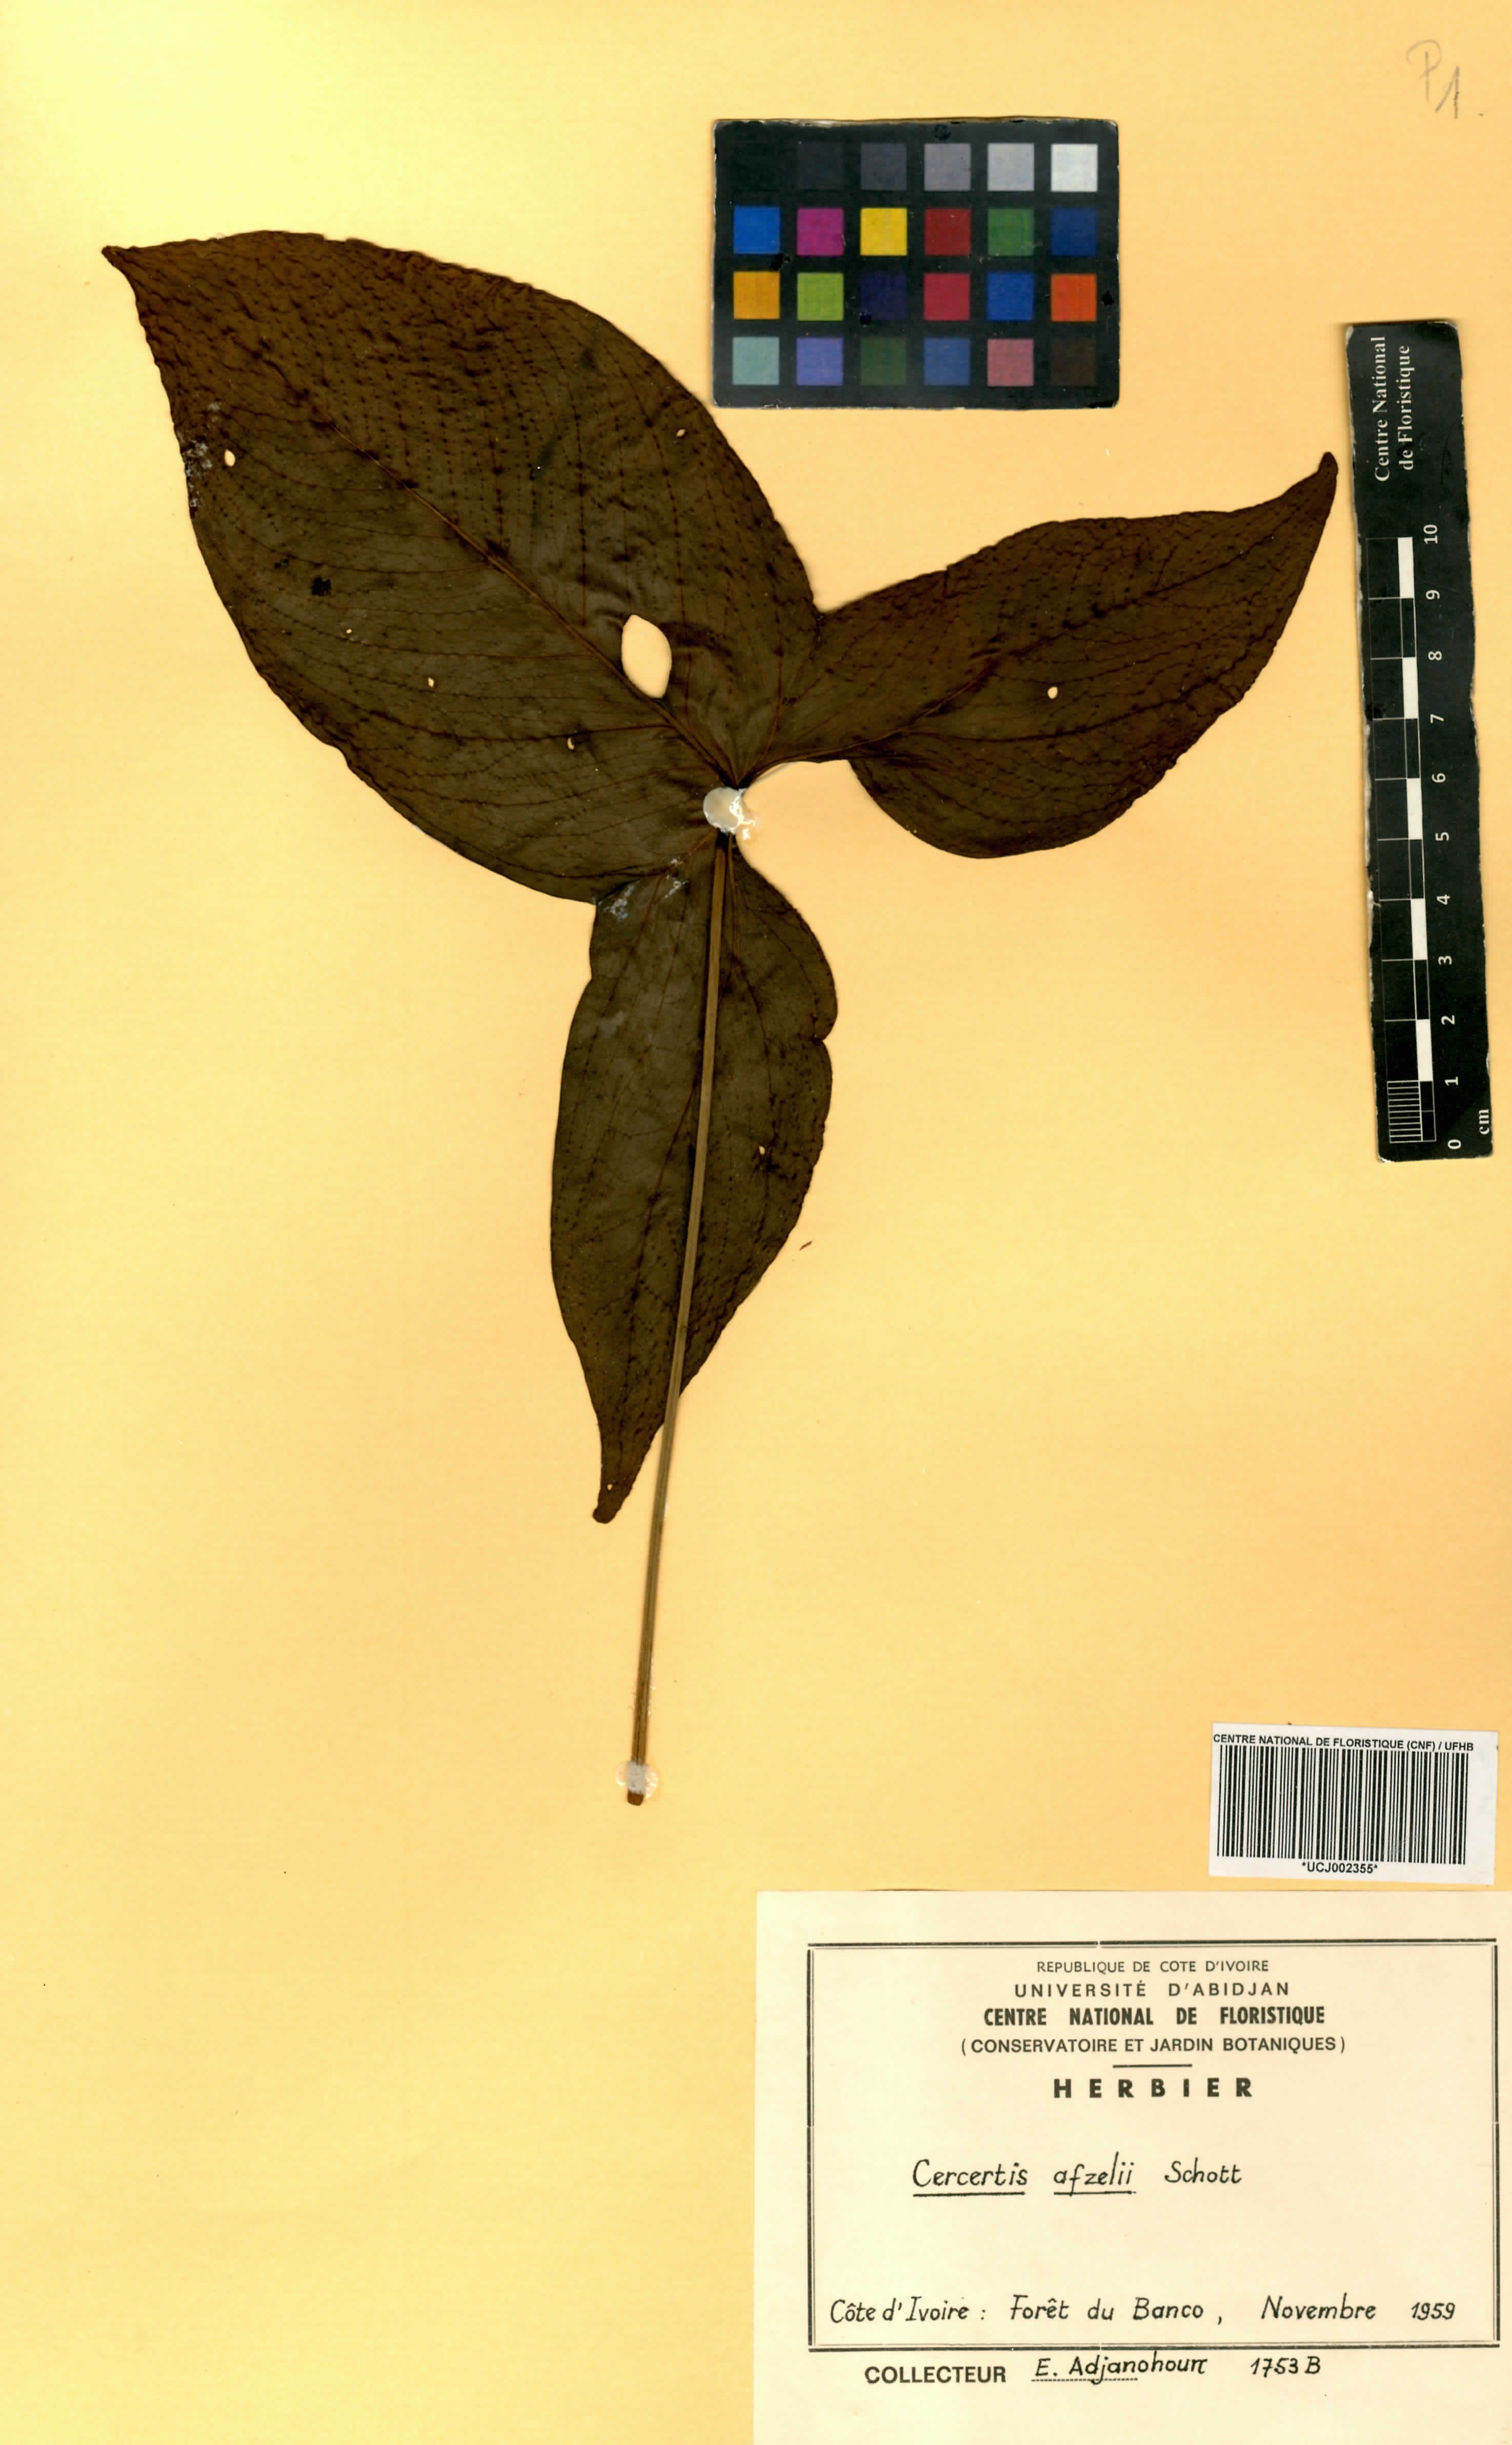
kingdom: Plantae
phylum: Tracheophyta
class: Liliopsida
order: Alismatales
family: Araceae
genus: Cercestis
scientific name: Cercestis afzelii
